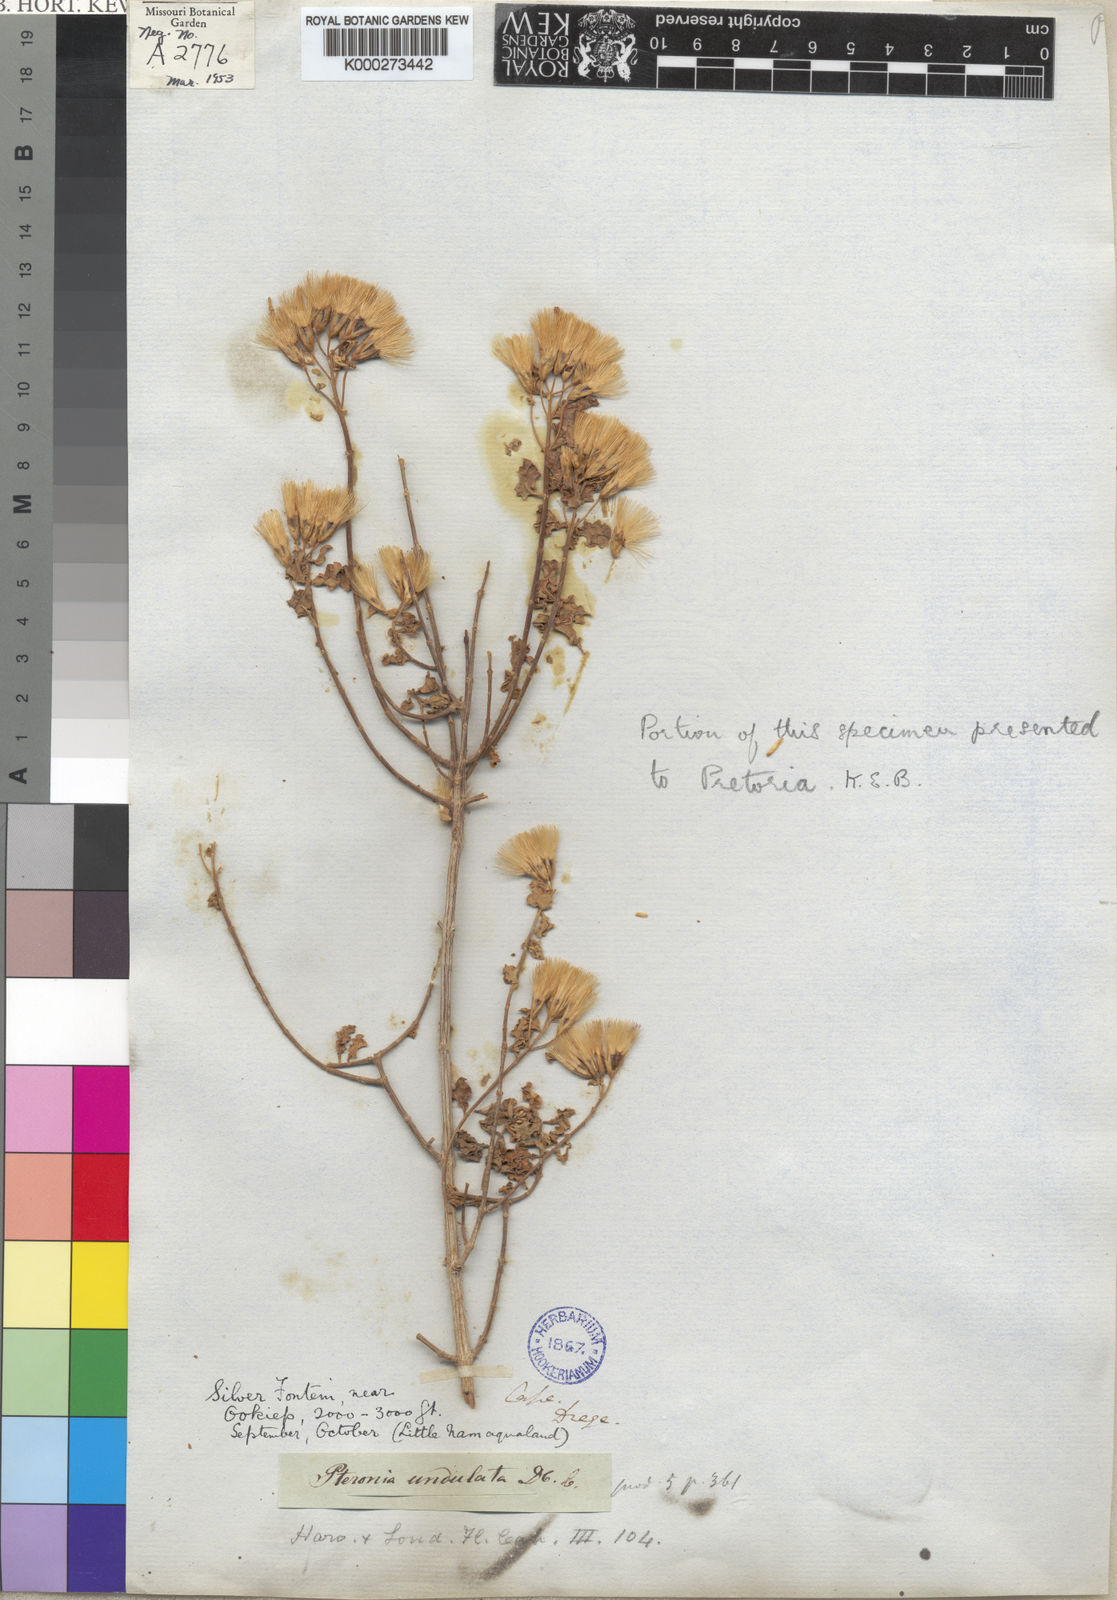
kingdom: Plantae
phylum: Tracheophyta
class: Magnoliopsida
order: Asterales
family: Asteraceae
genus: Pteronia
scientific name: Pteronia divaricata
